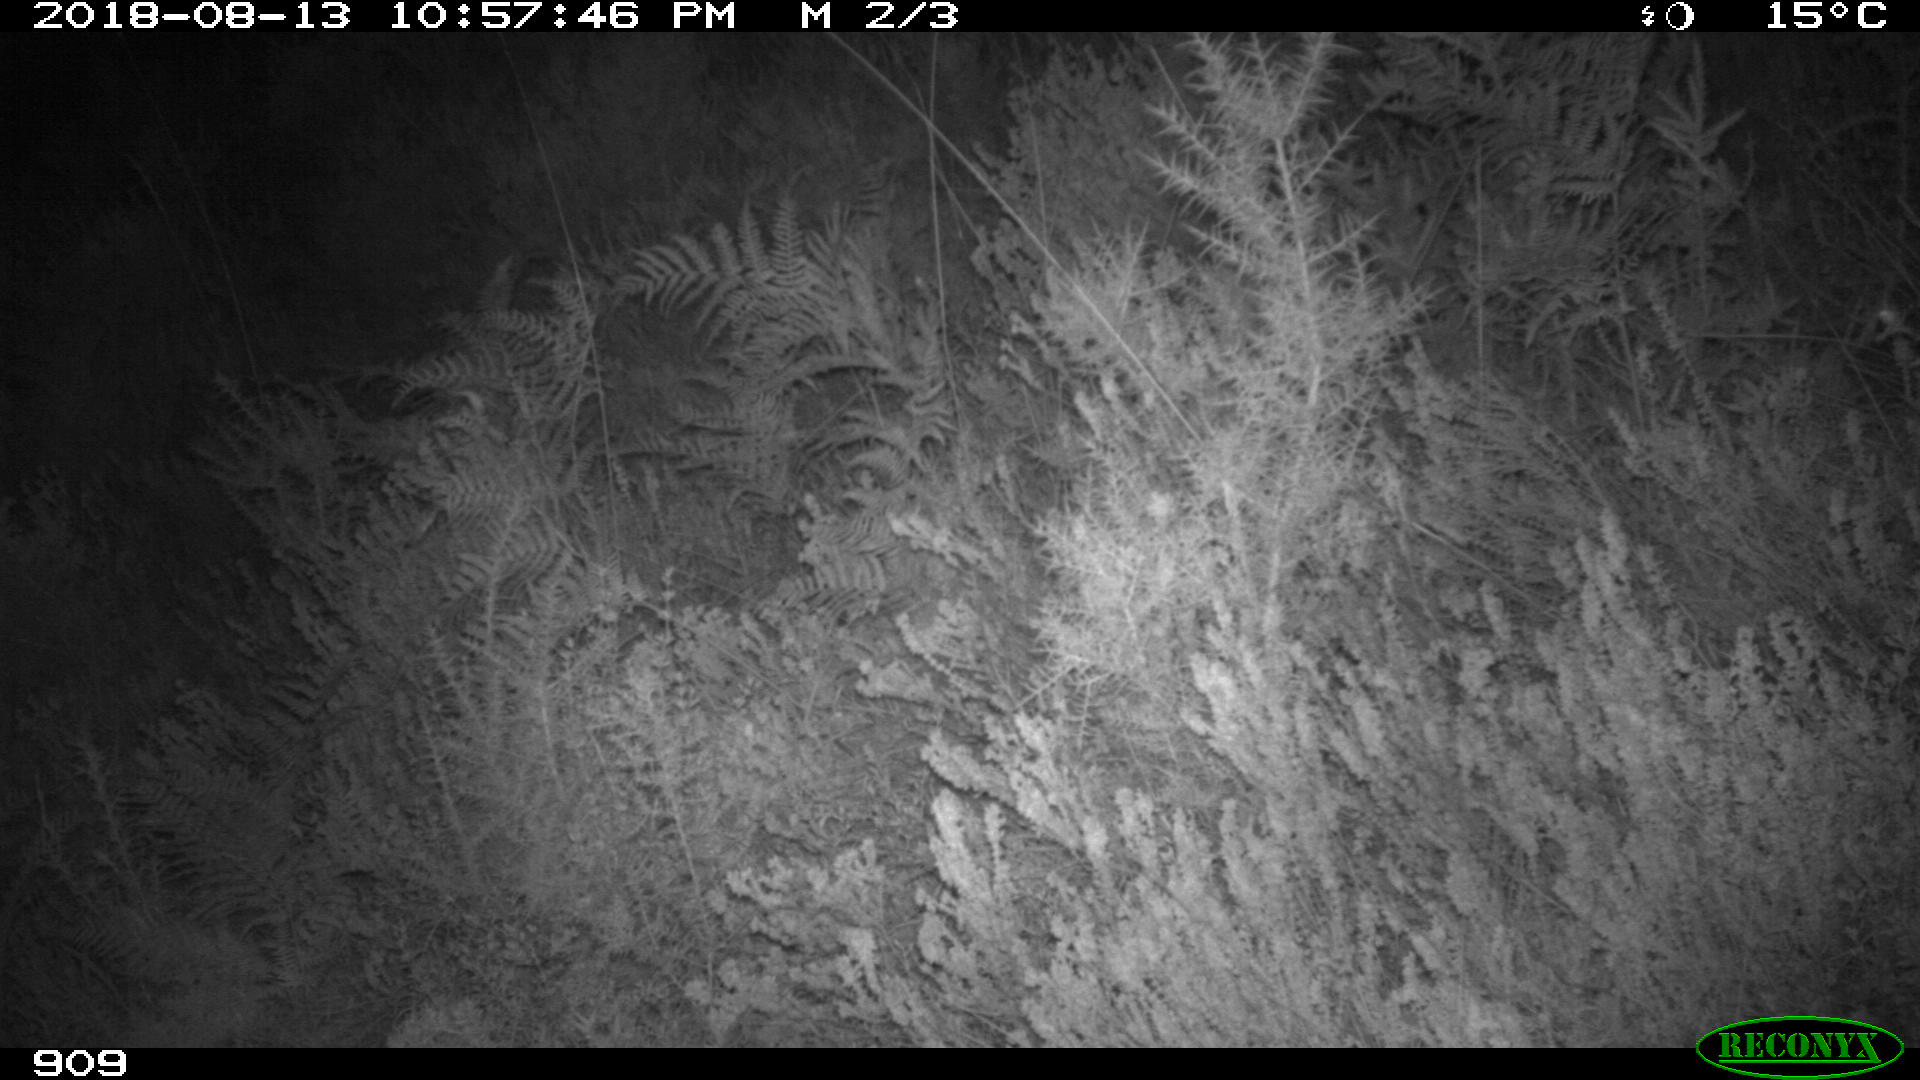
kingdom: Animalia
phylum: Chordata
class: Mammalia
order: Artiodactyla
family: Cervidae
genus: Capreolus
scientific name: Capreolus capreolus
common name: Western roe deer
